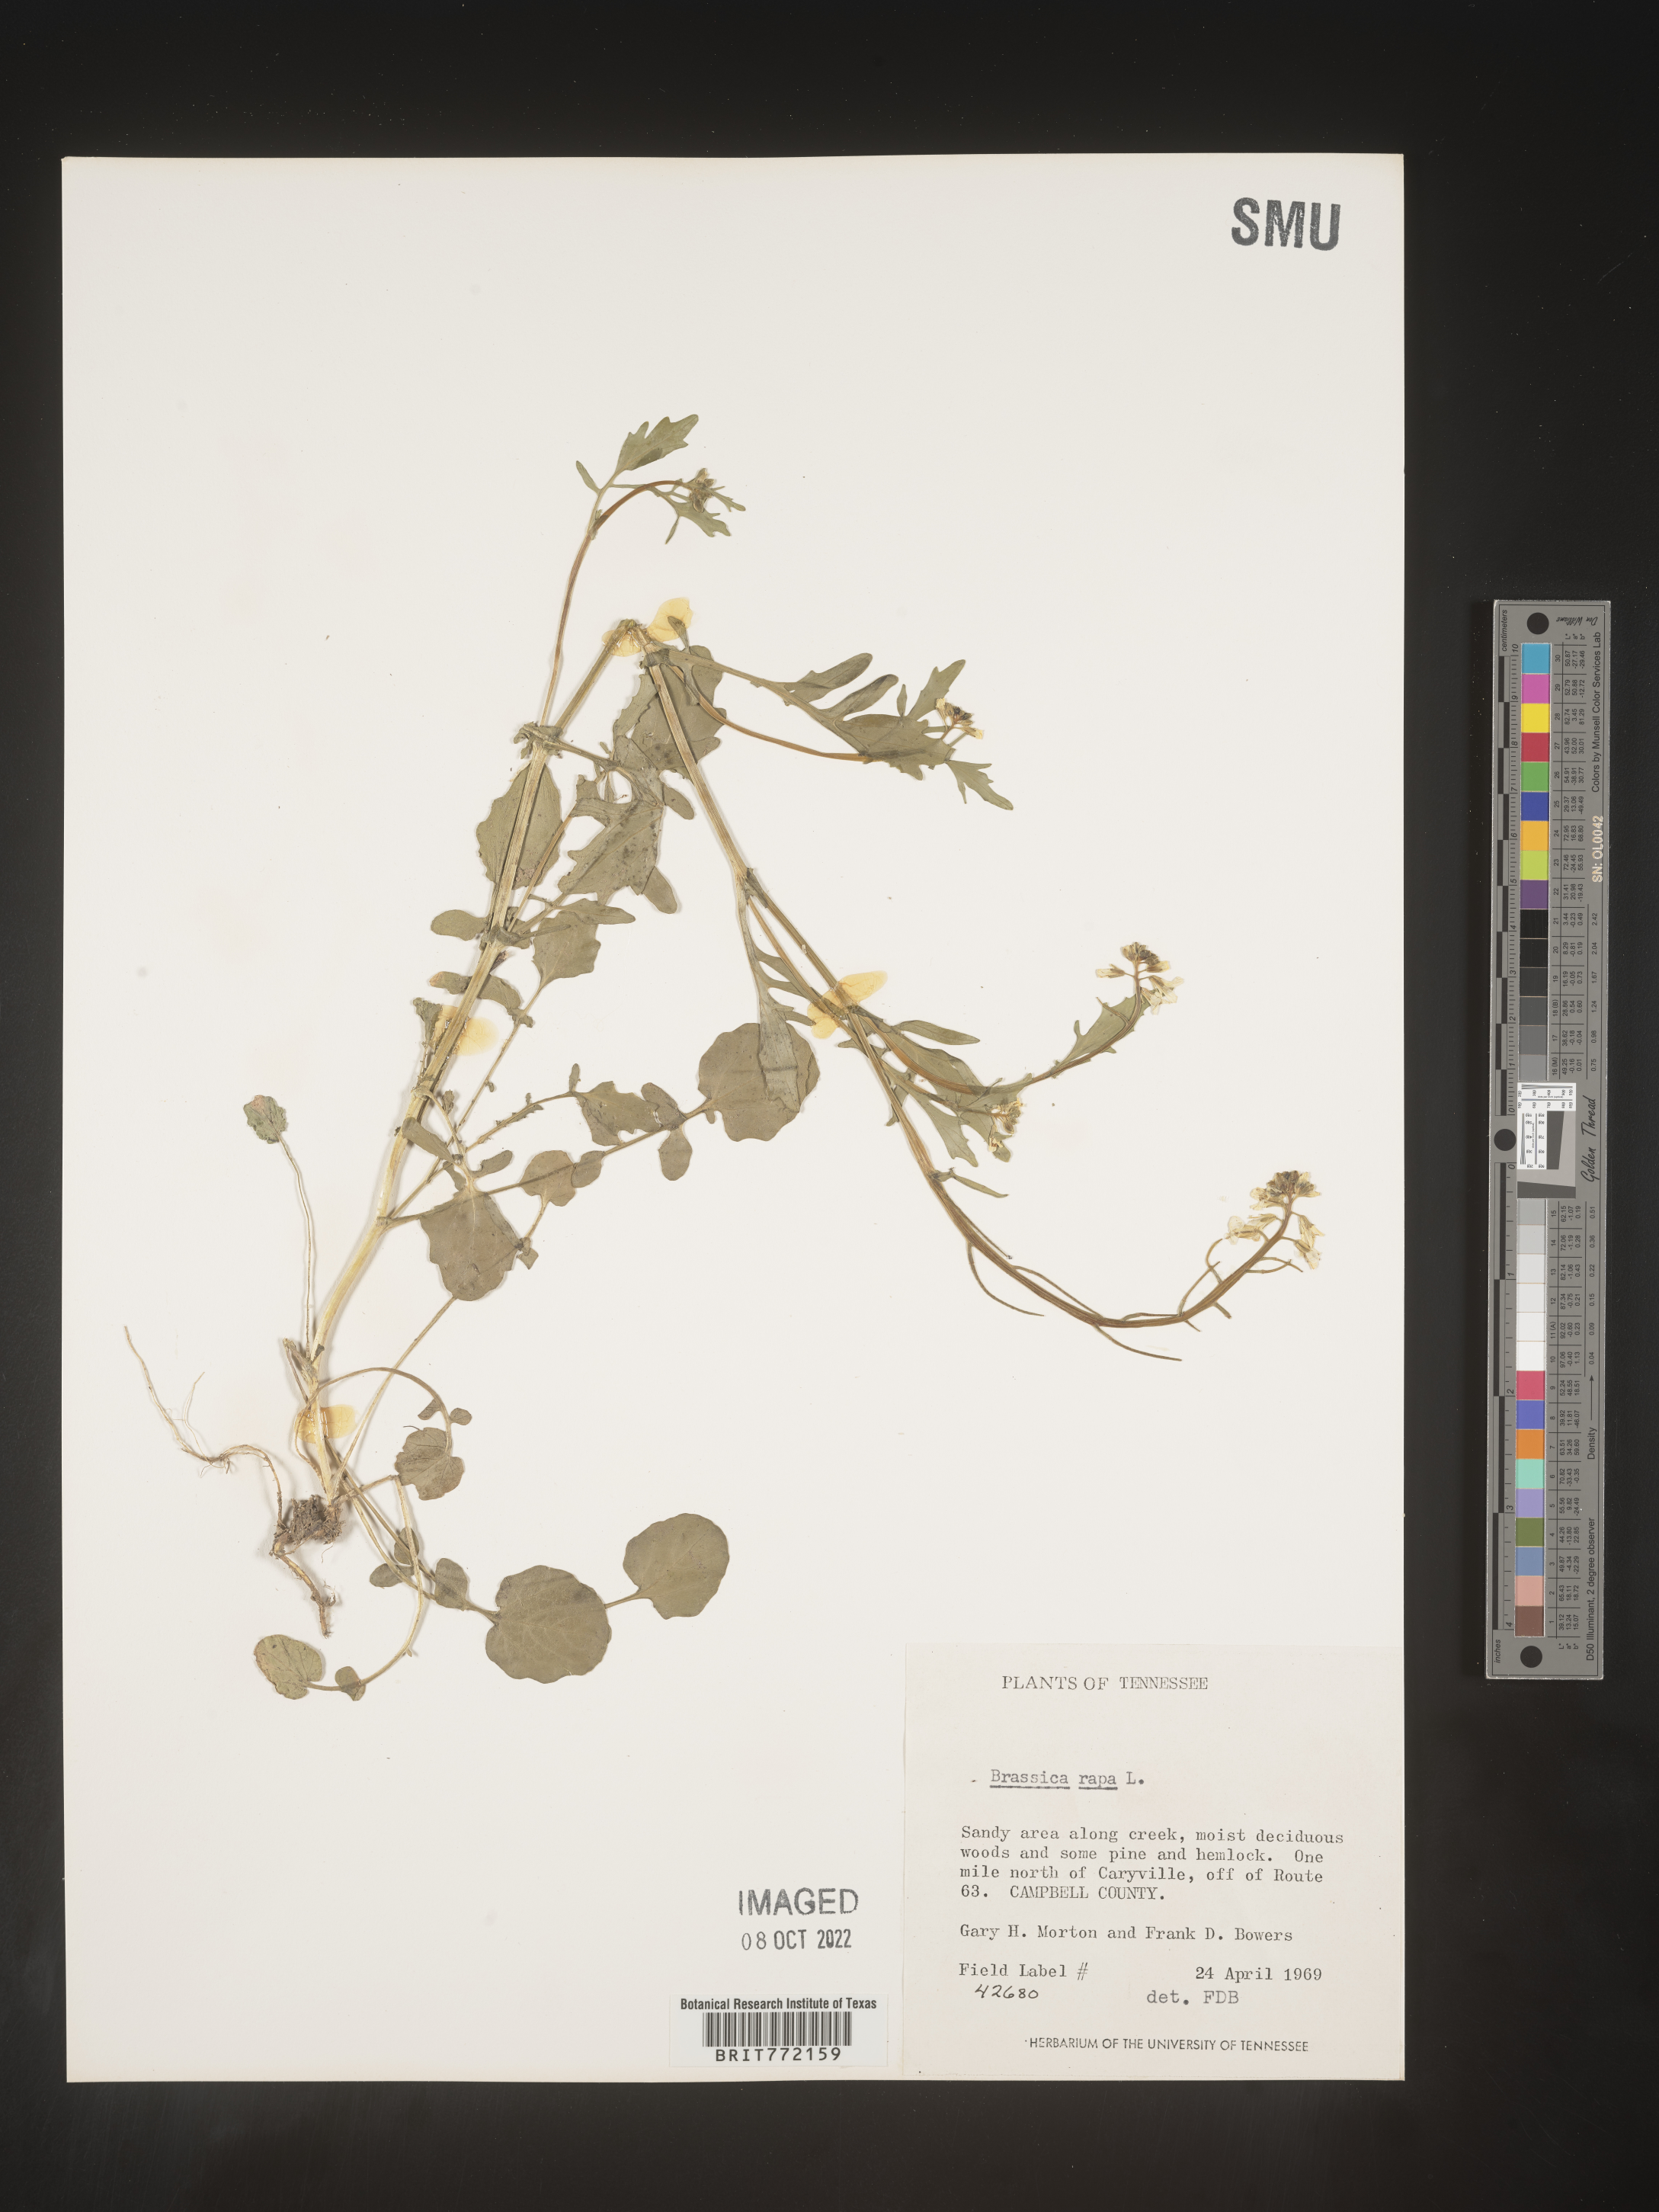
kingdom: Plantae
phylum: Tracheophyta
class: Magnoliopsida
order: Brassicales
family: Brassicaceae
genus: Brassica
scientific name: Brassica rapa
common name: Field mustard
